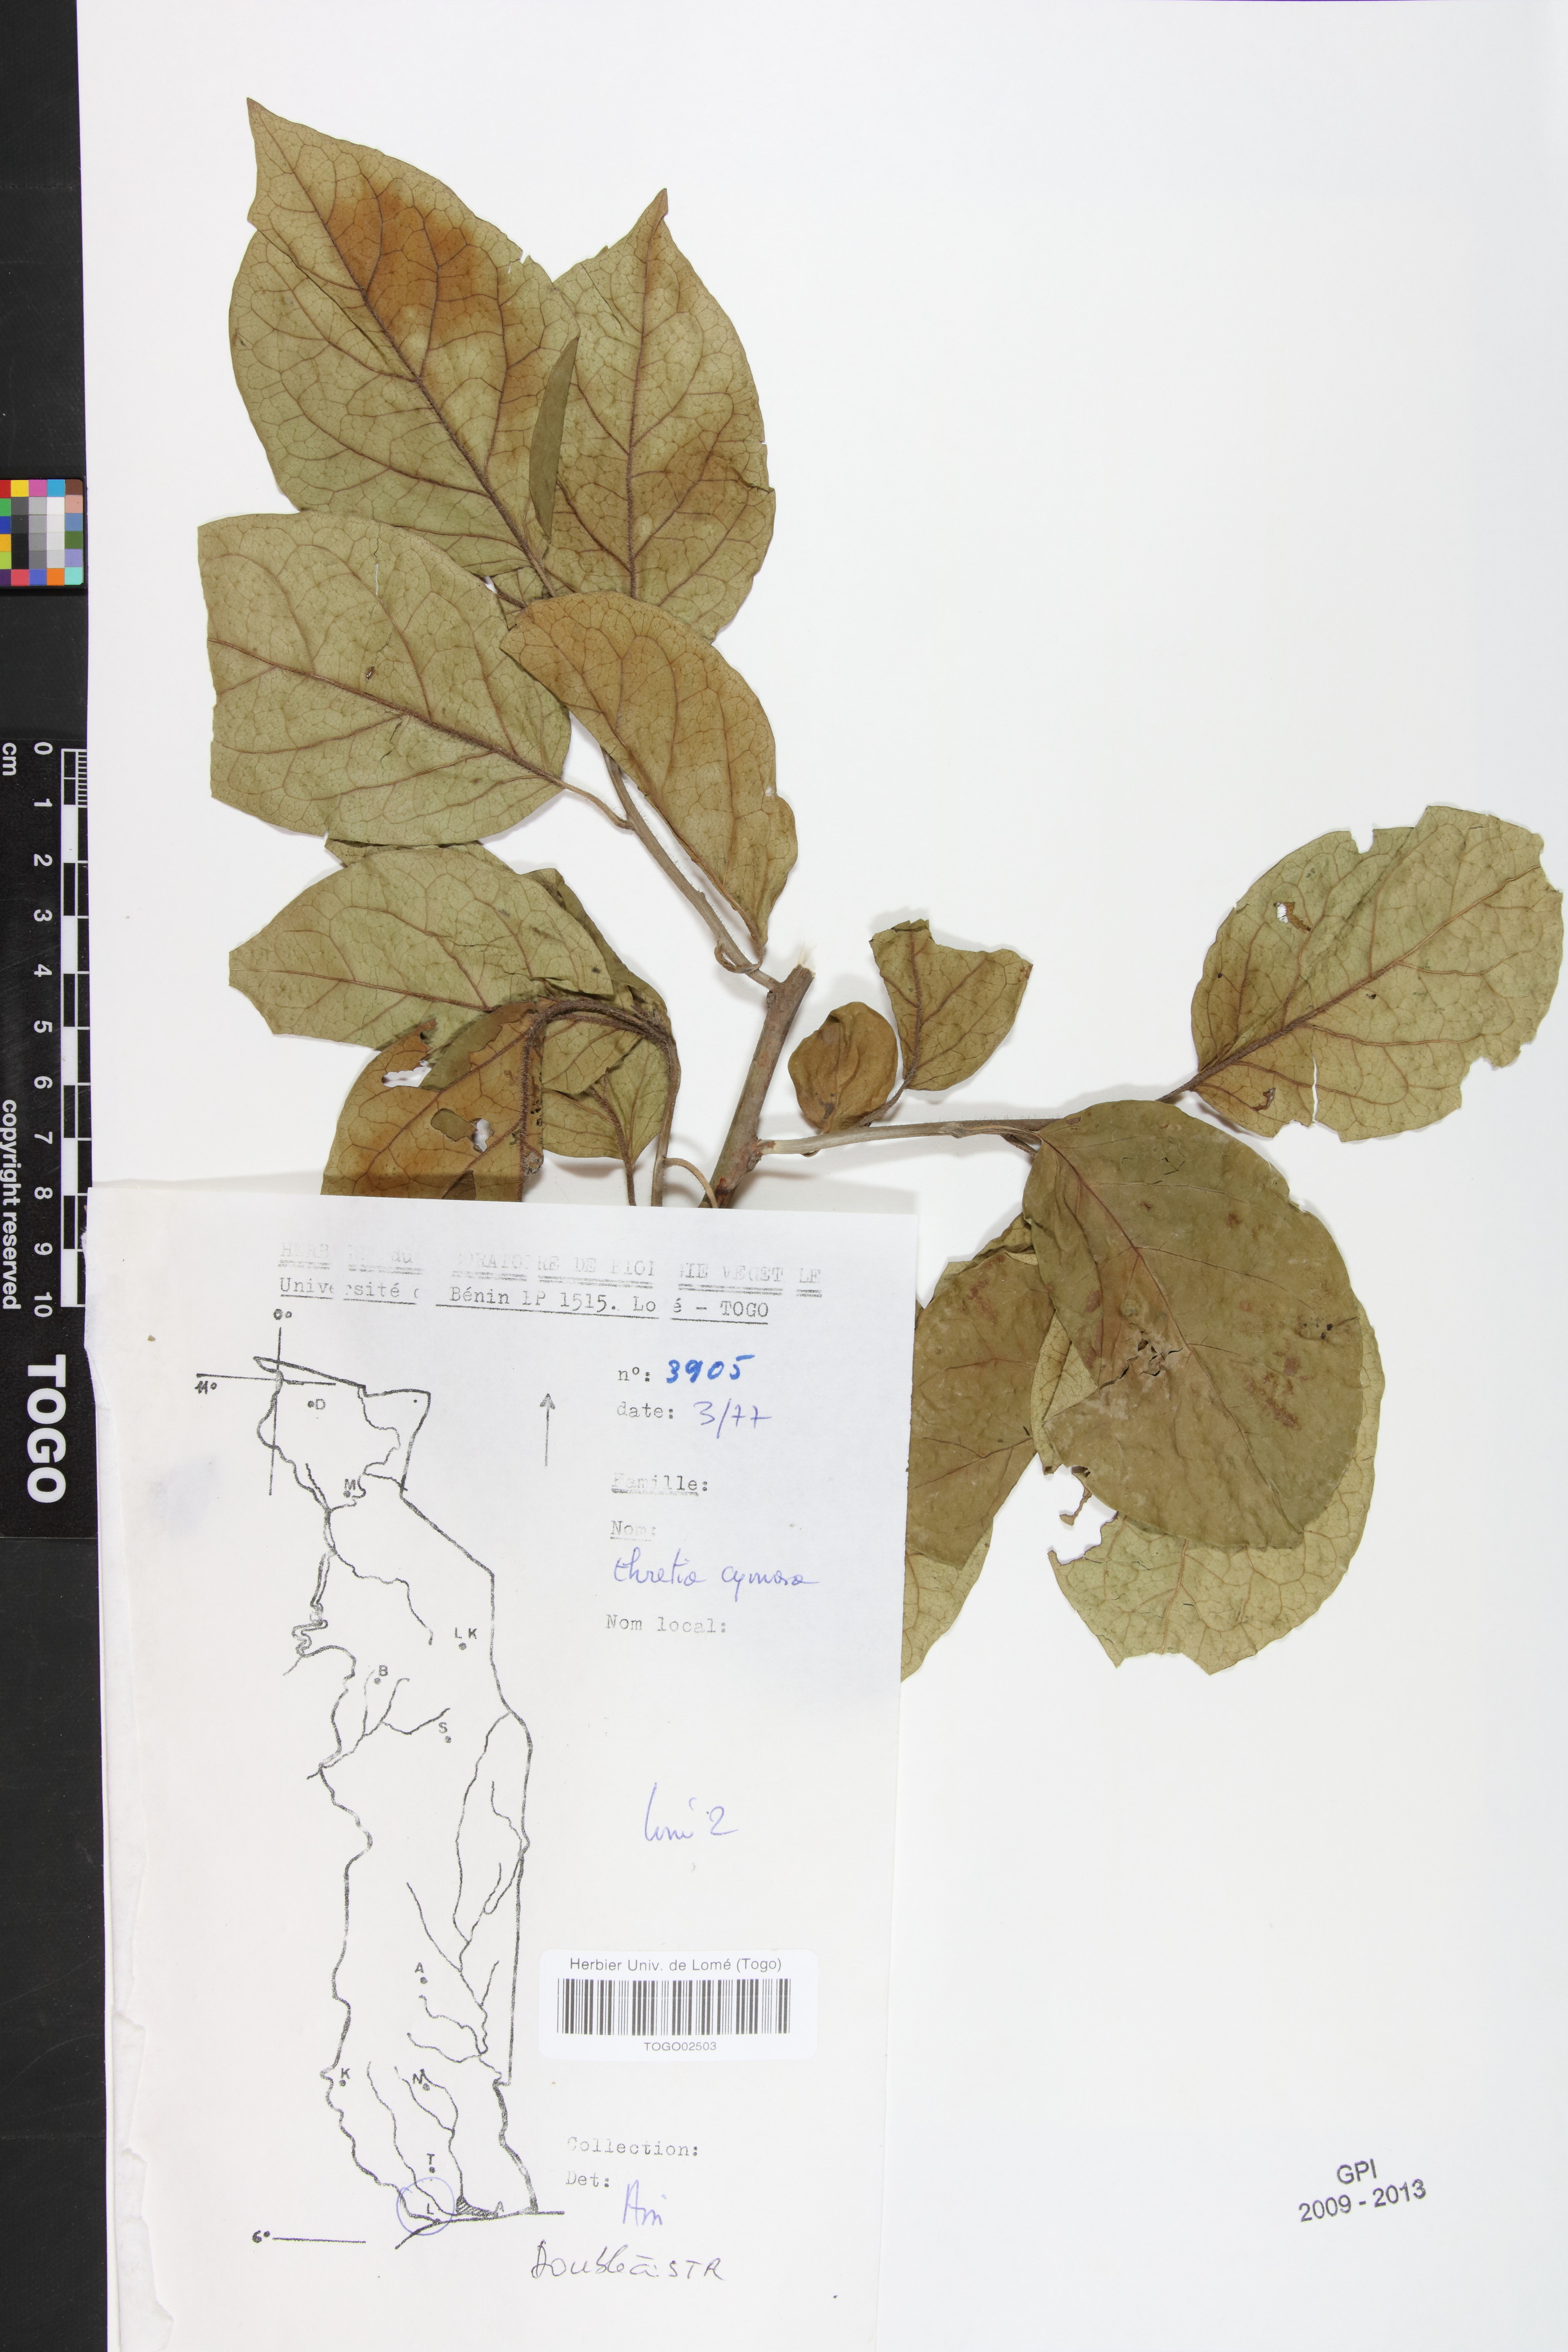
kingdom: Plantae
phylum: Tracheophyta
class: Magnoliopsida
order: Boraginales
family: Ehretiaceae
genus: Ehretia
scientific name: Ehretia cymosa
